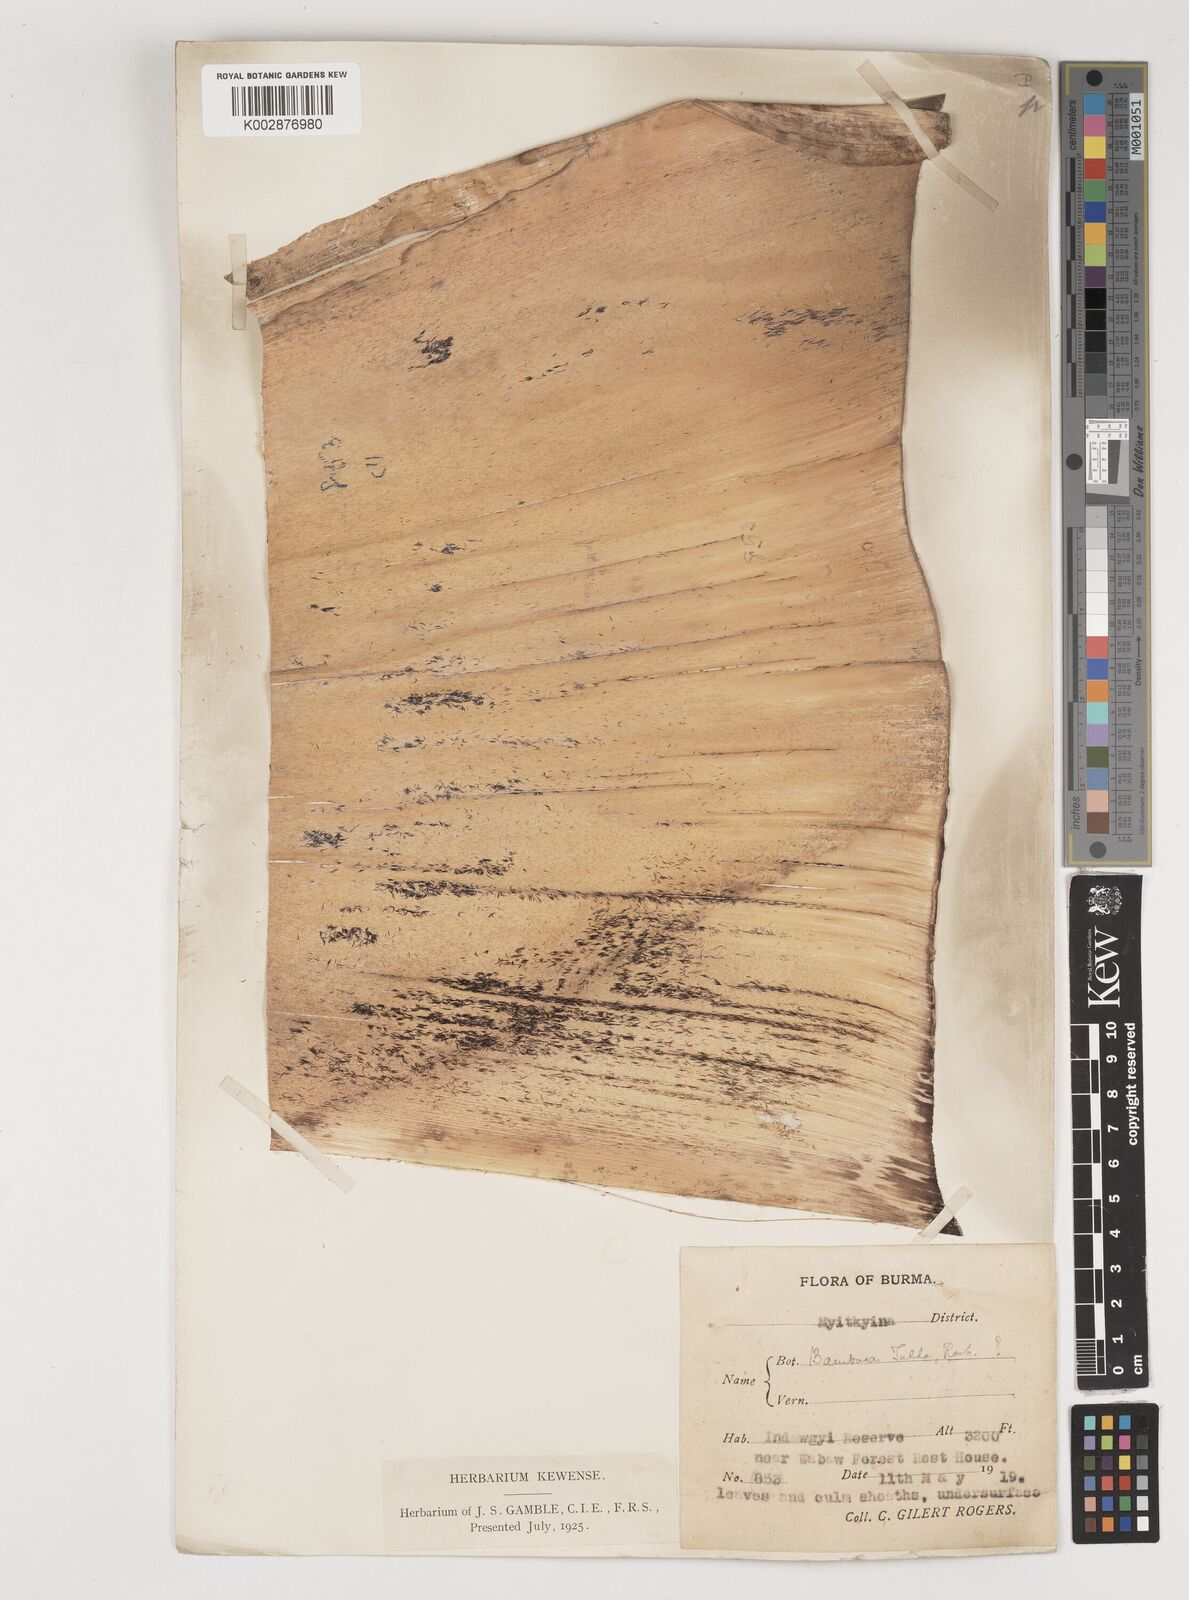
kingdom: Plantae
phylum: Tracheophyta
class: Liliopsida
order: Poales
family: Poaceae
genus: Bambusa
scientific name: Bambusa tulda
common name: Bengal bamboo
